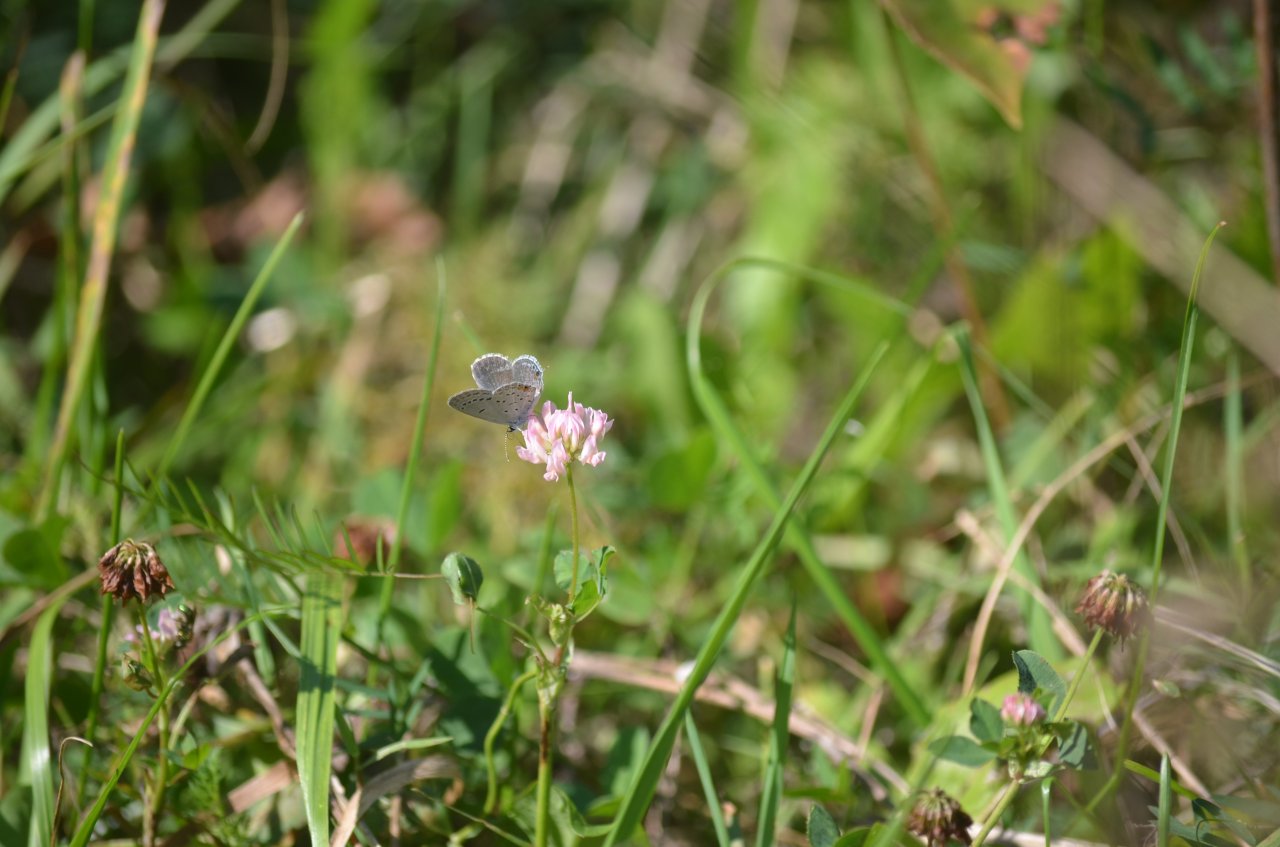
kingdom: Animalia
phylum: Arthropoda
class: Insecta
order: Lepidoptera
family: Lycaenidae
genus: Elkalyce
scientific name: Elkalyce comyntas
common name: Eastern Tailed-Blue
